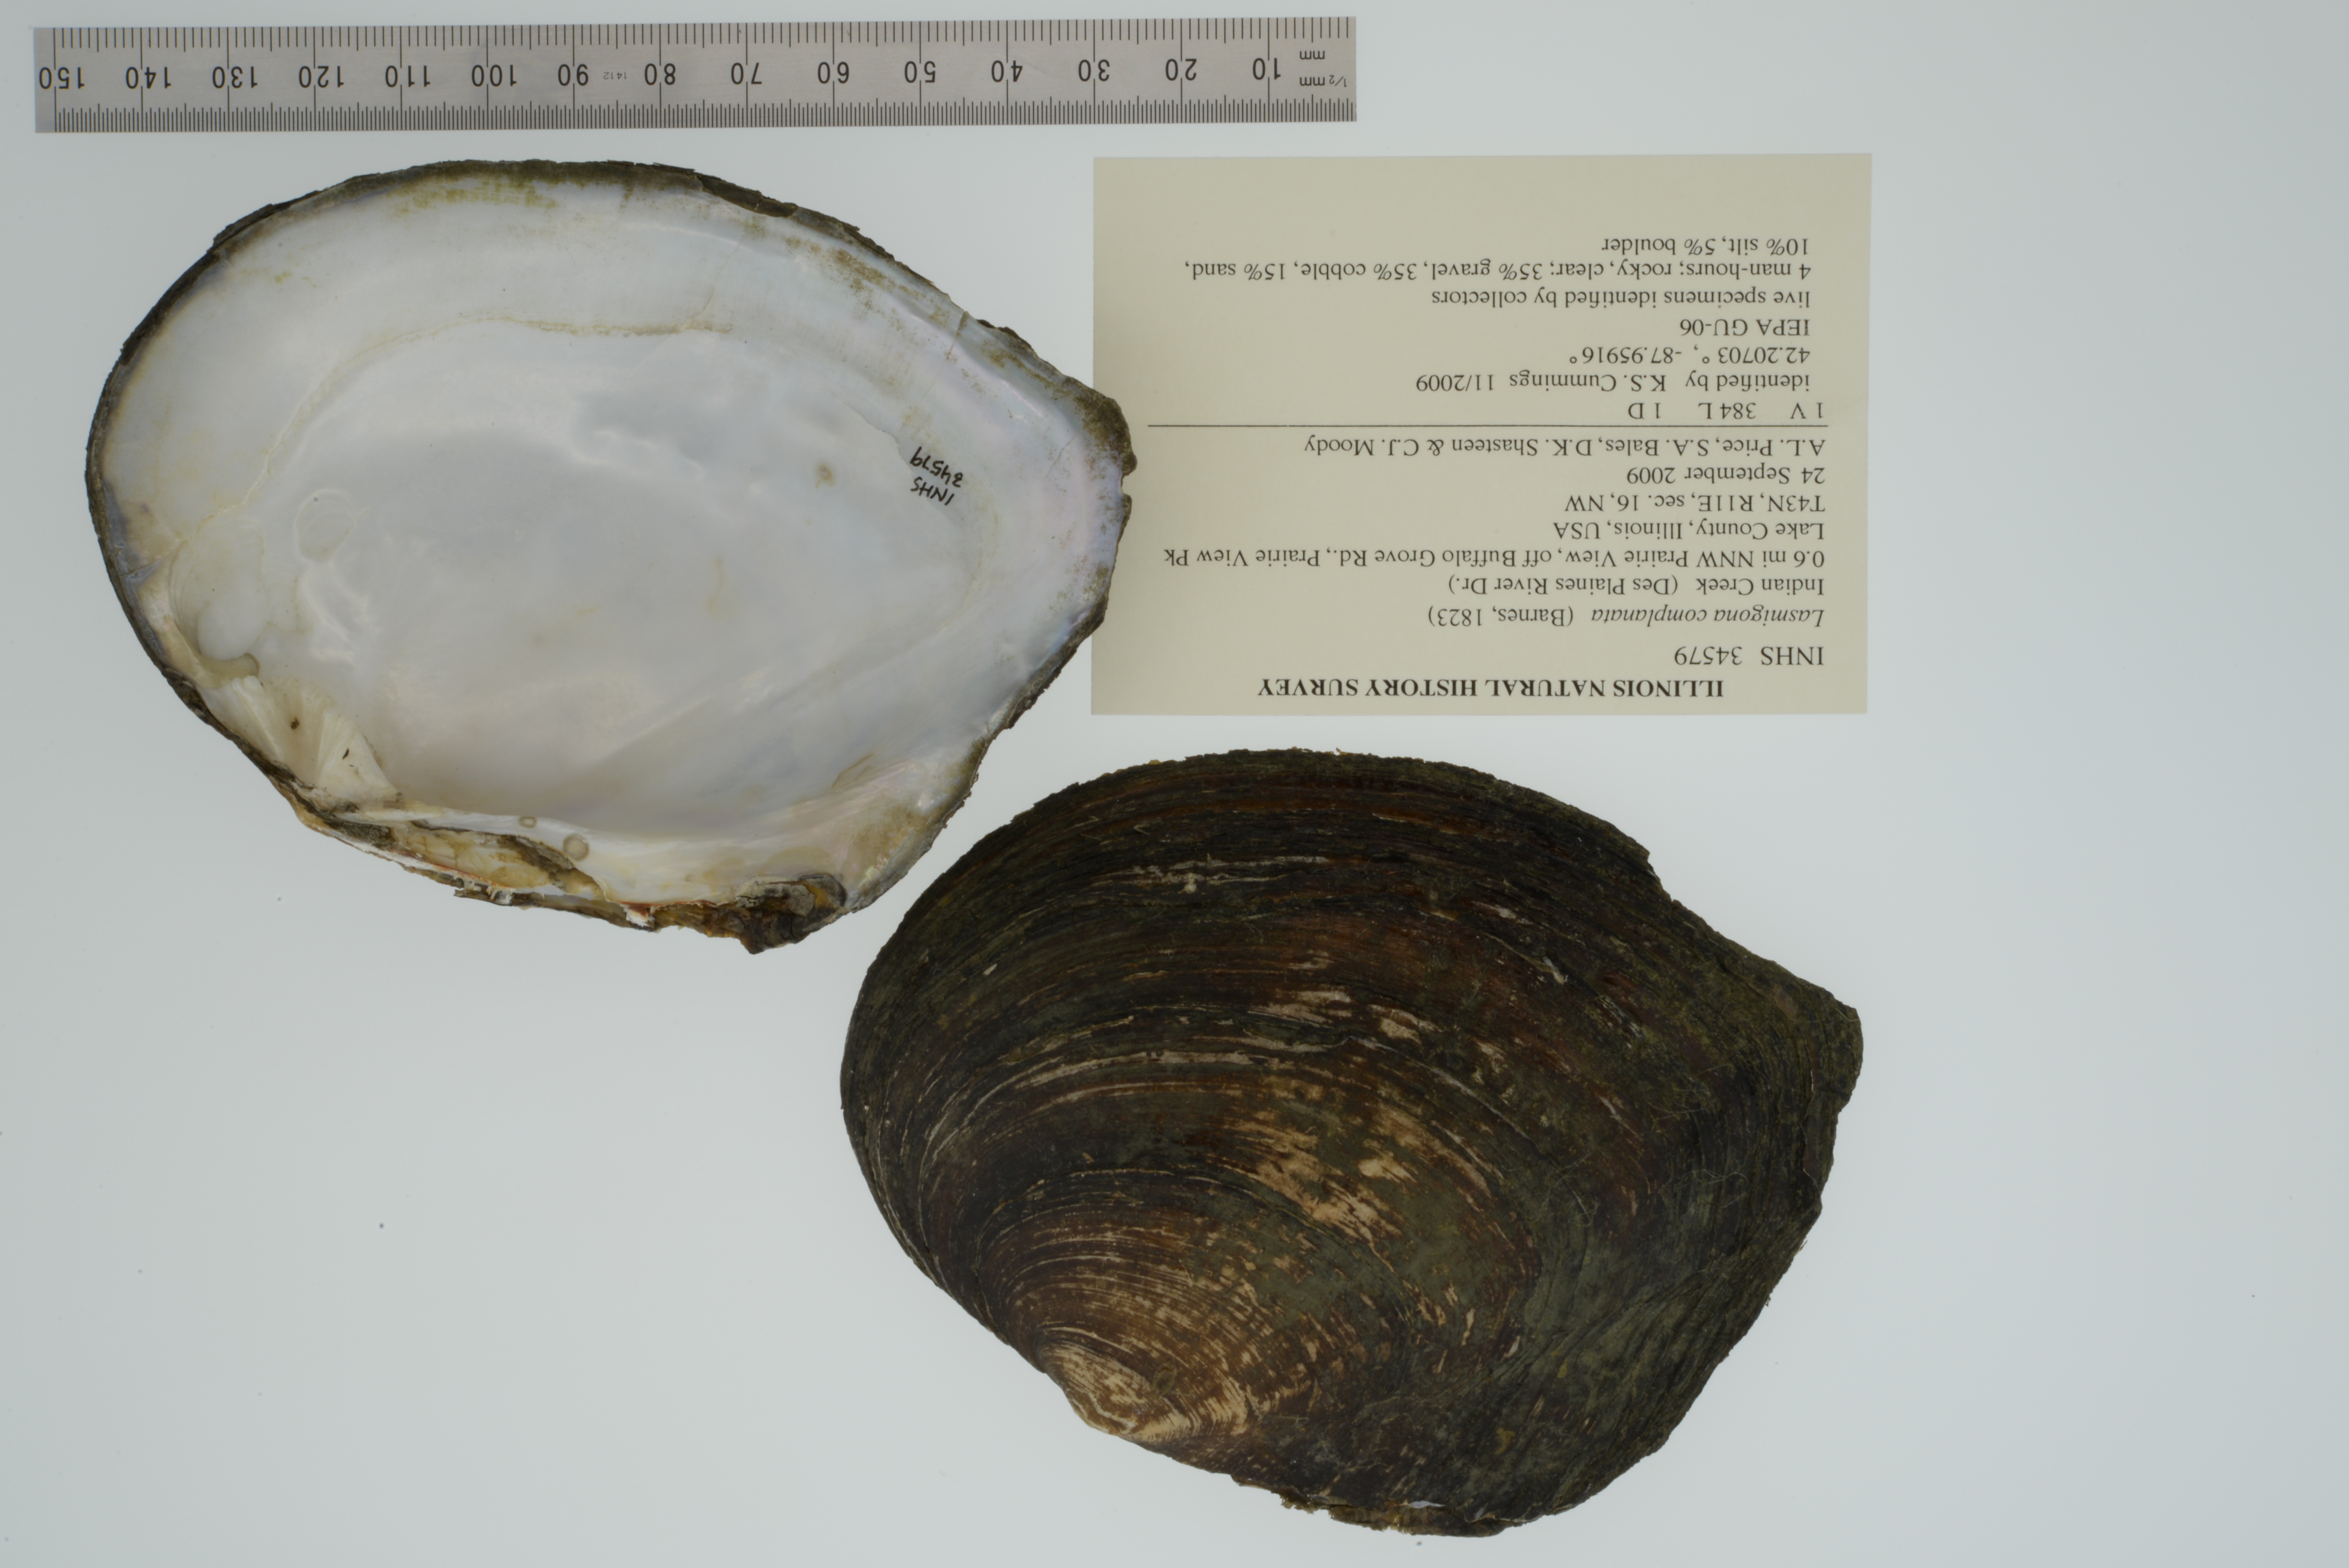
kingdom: Animalia
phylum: Mollusca
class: Bivalvia
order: Unionida
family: Unionidae
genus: Lasmigona
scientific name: Lasmigona complanata
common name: White heelsplitter
